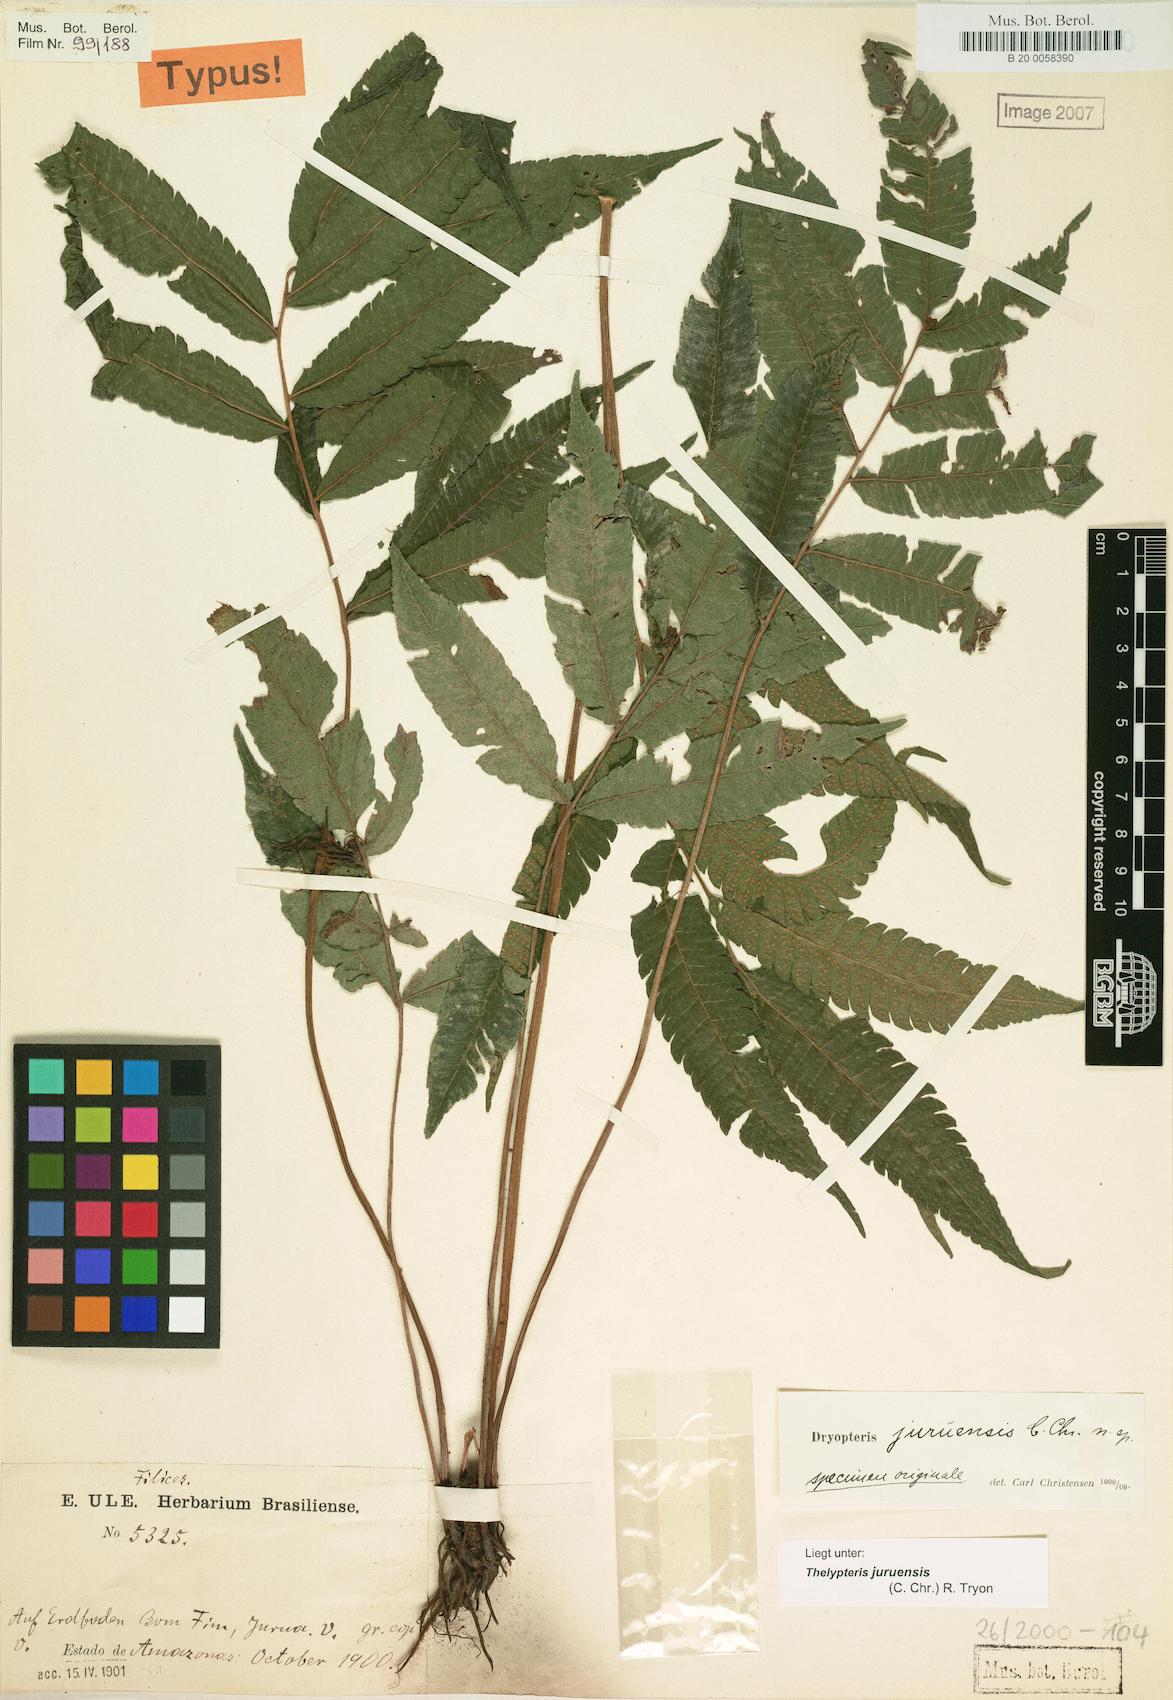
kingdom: Plantae
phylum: Tracheophyta
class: Polypodiopsida
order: Polypodiales
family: Thelypteridaceae
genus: Goniopteris
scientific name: Goniopteris juruensis
